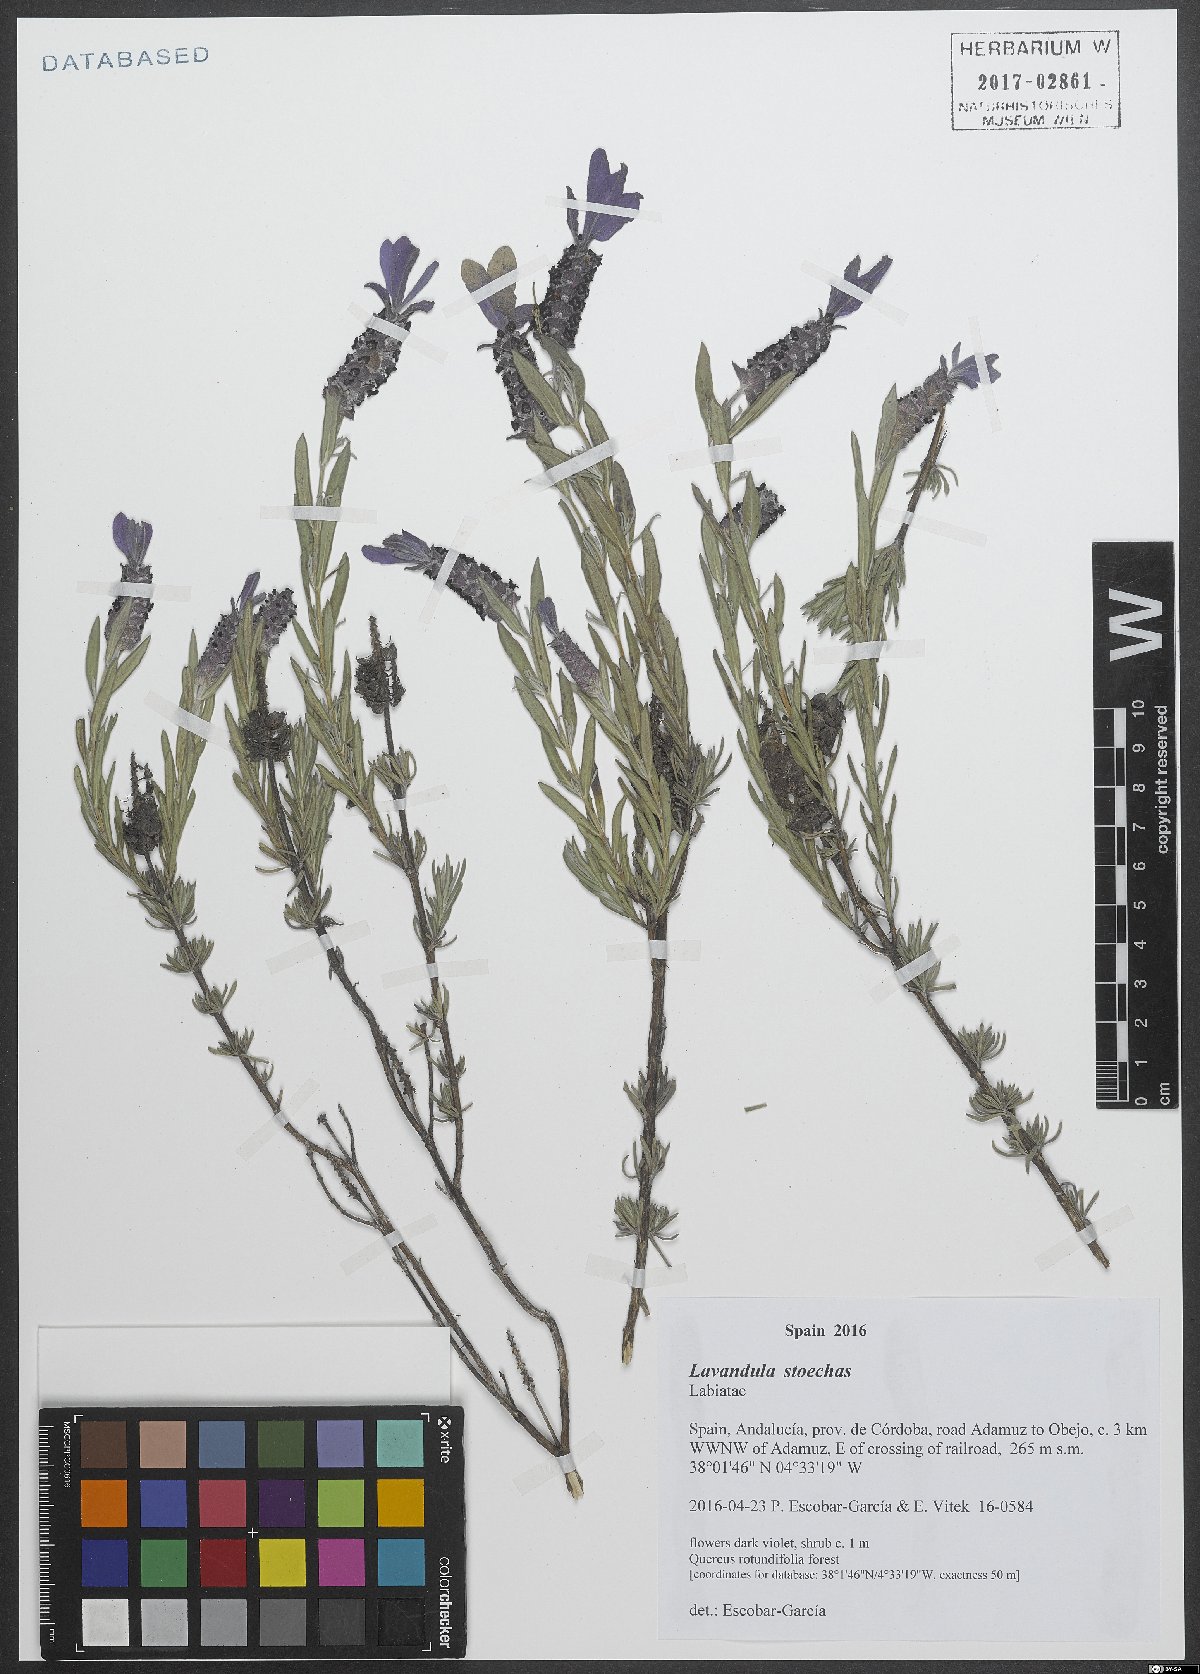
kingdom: Plantae
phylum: Tracheophyta
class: Magnoliopsida
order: Lamiales
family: Lamiaceae
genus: Lavandula
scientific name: Lavandula stoechas
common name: French lavender
